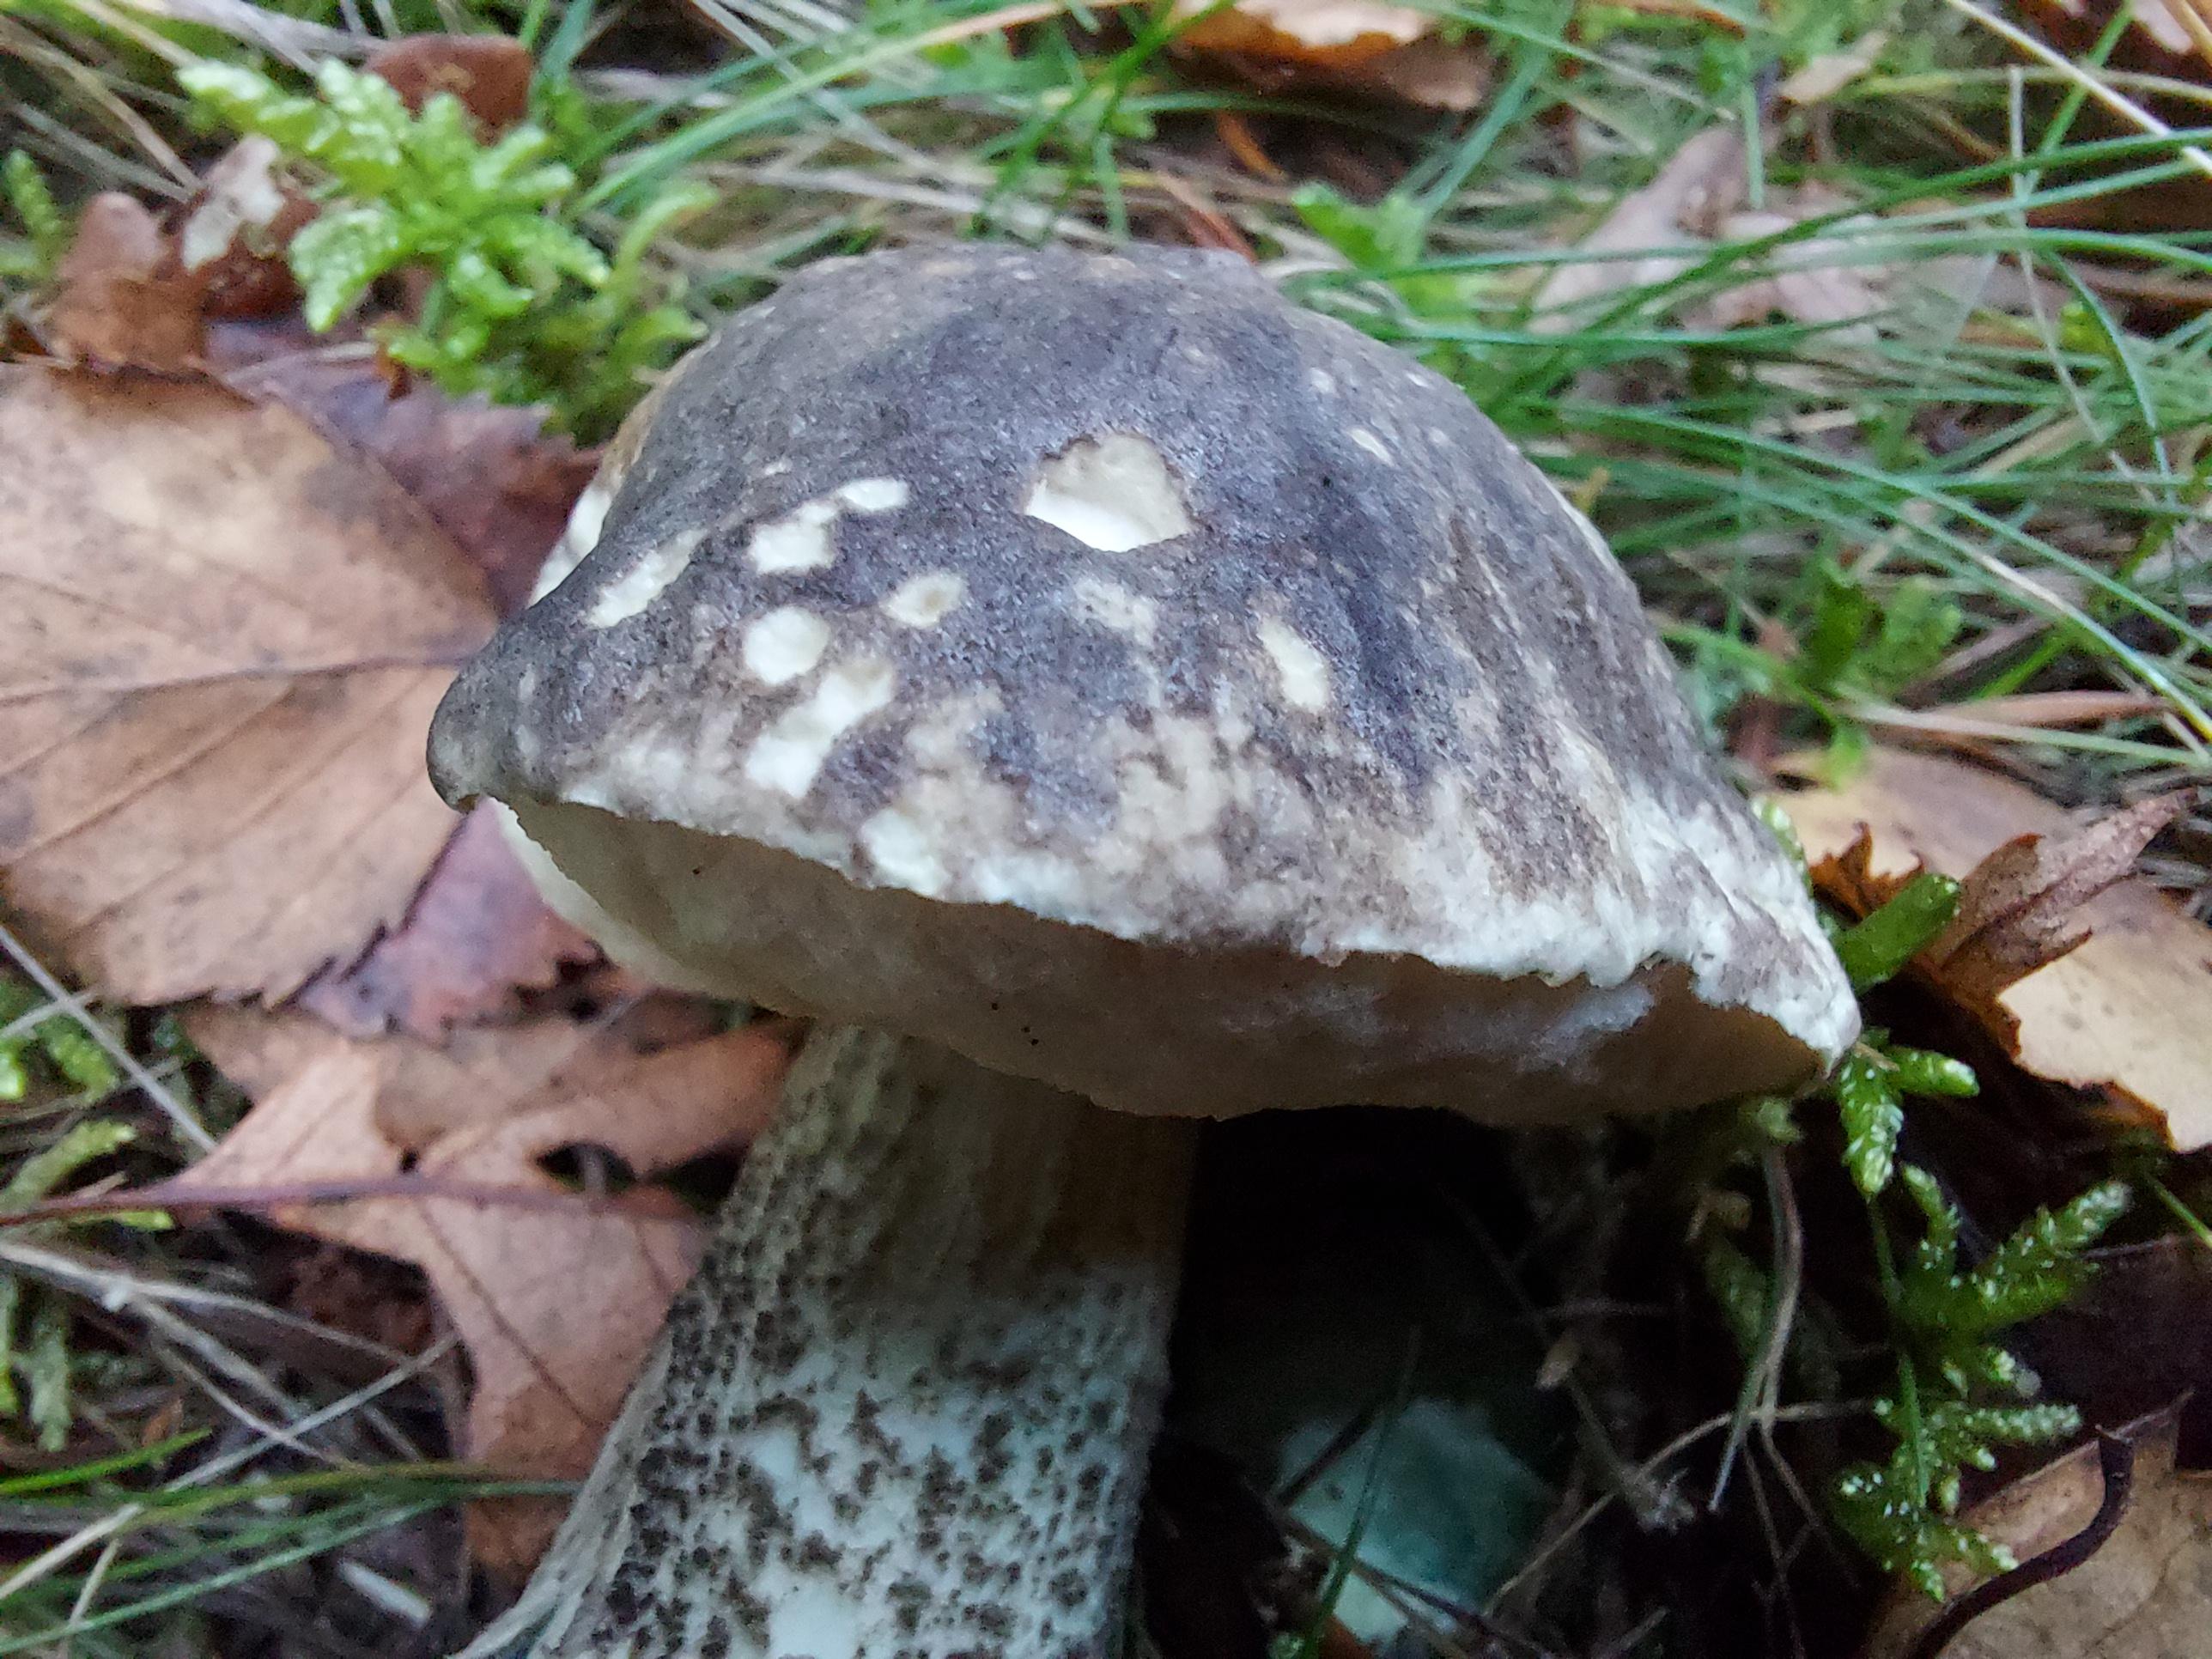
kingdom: Fungi
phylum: Basidiomycota
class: Agaricomycetes
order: Boletales
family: Boletaceae
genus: Leccinum
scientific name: Leccinum variicolor
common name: flammet skælrørhat
